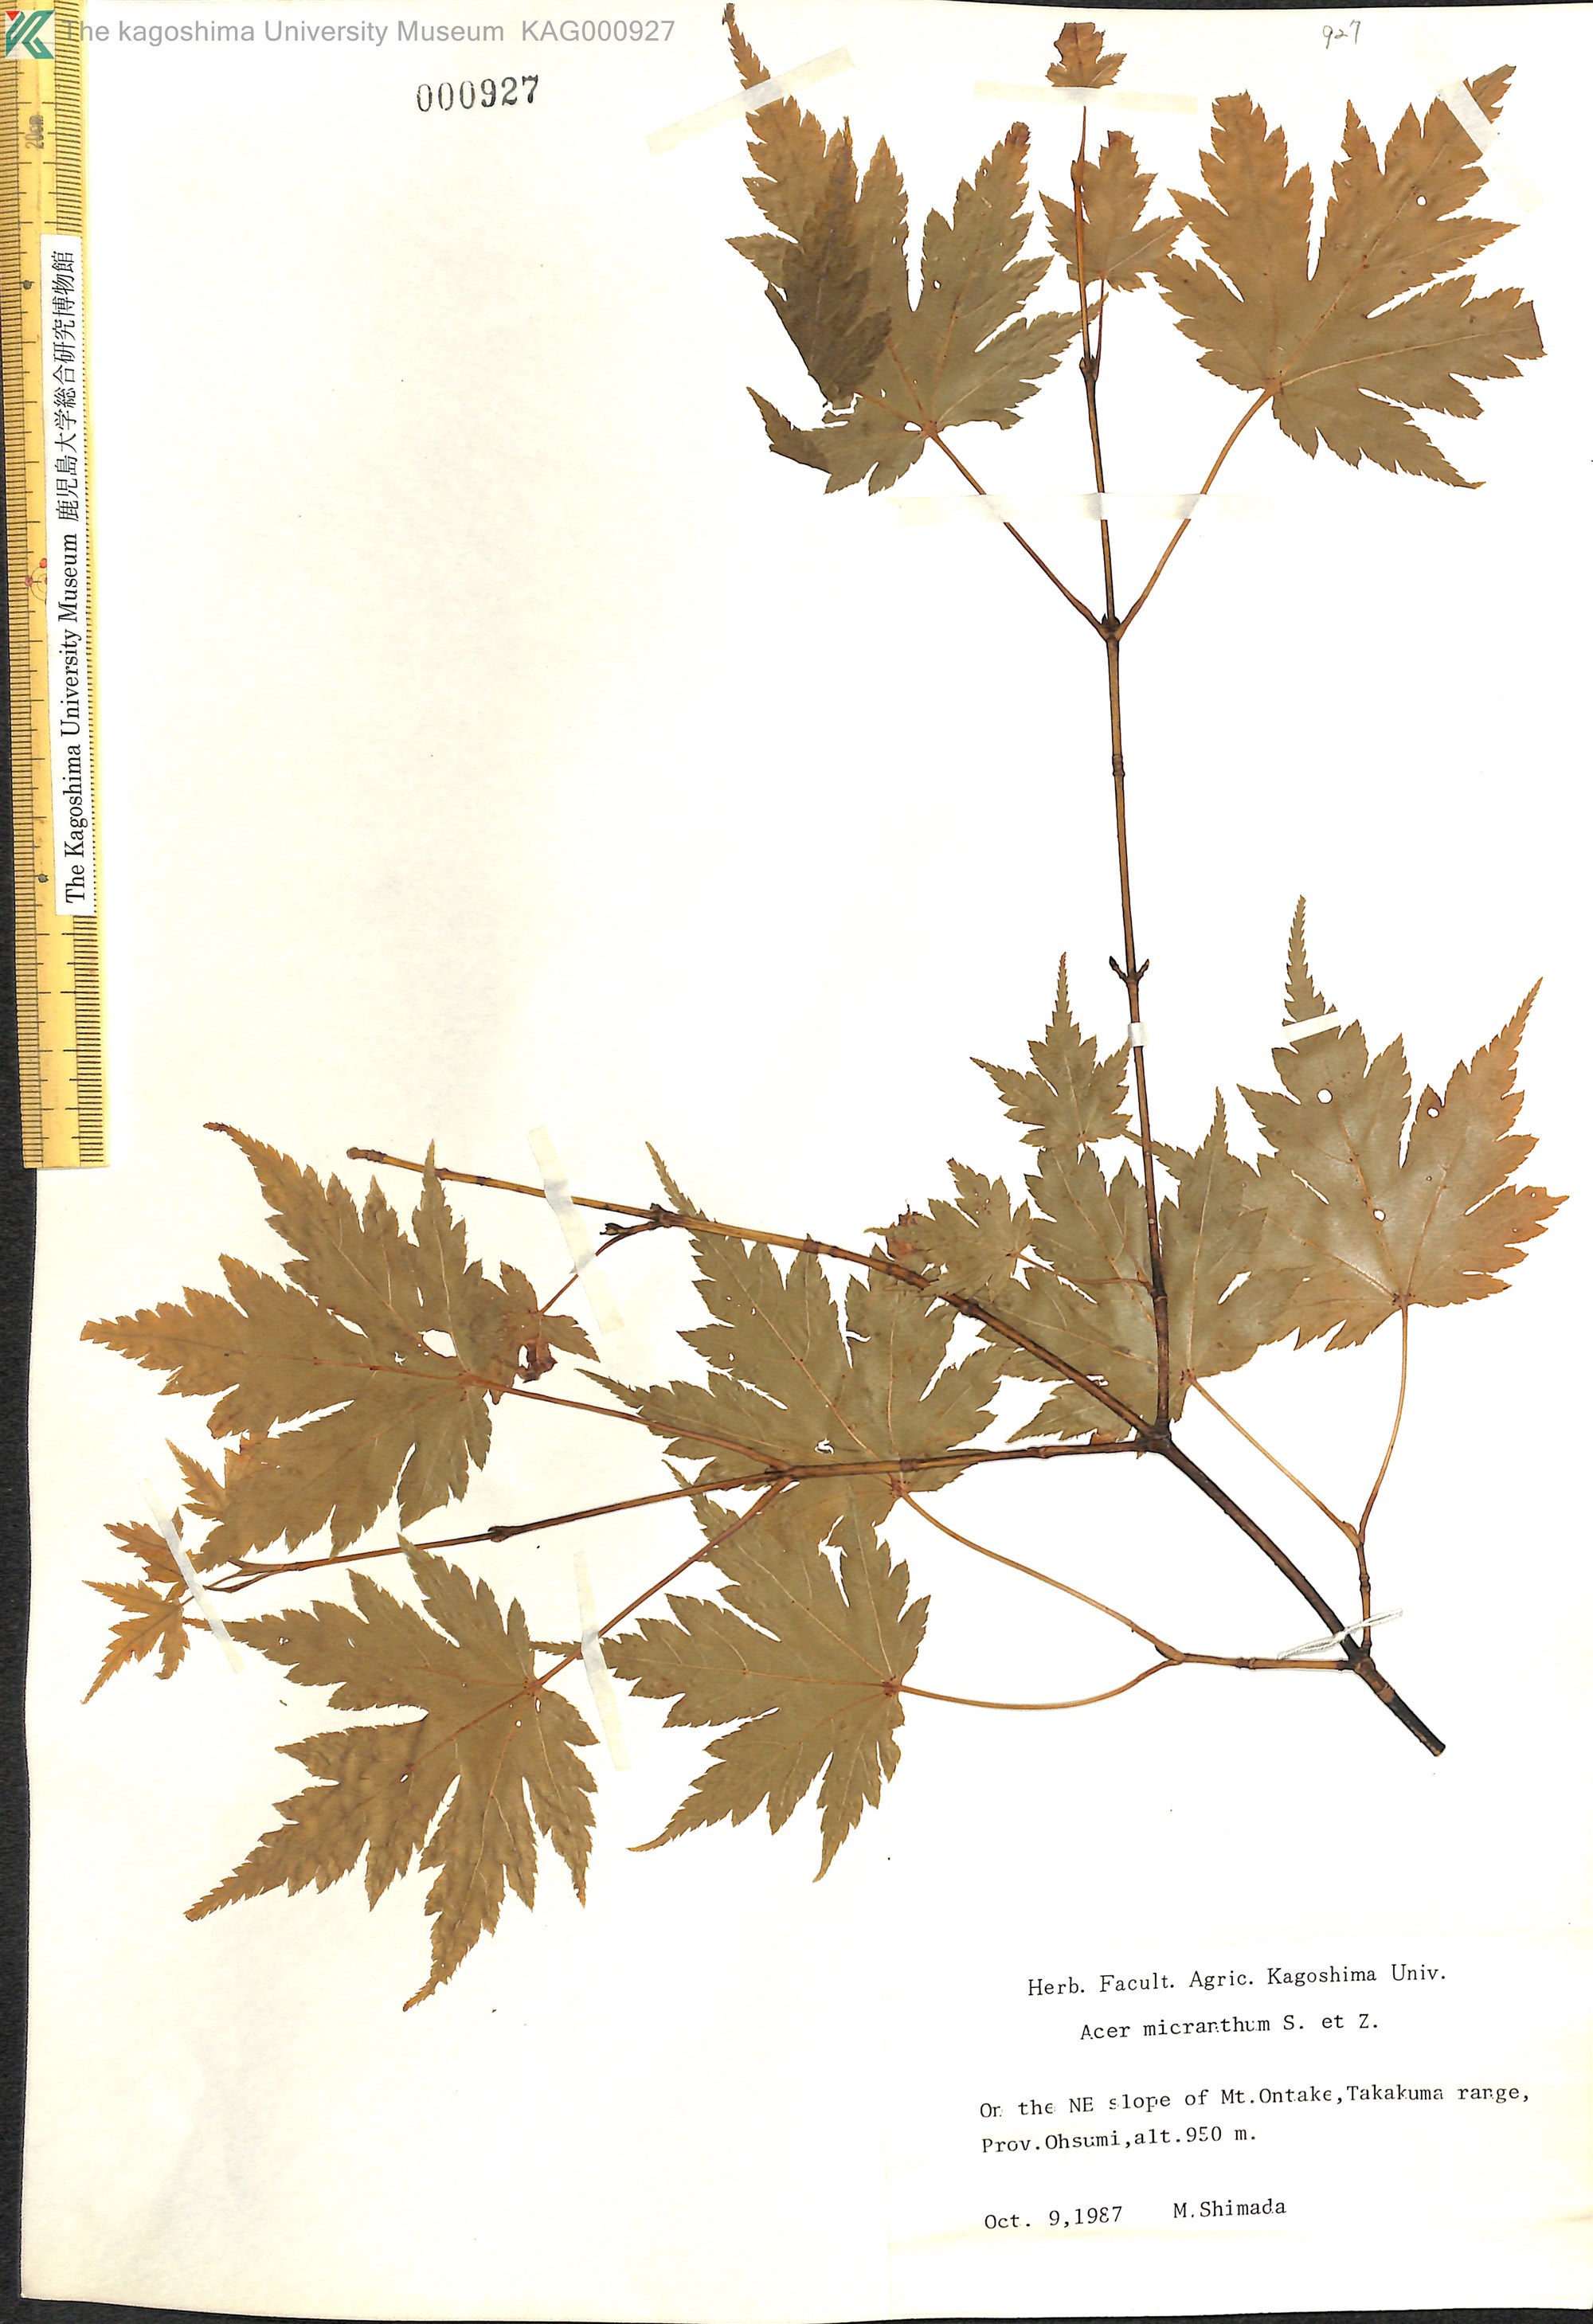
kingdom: Plantae
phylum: Tracheophyta
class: Magnoliopsida
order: Sapindales
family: Sapindaceae
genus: Acer
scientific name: Acer micranthum
